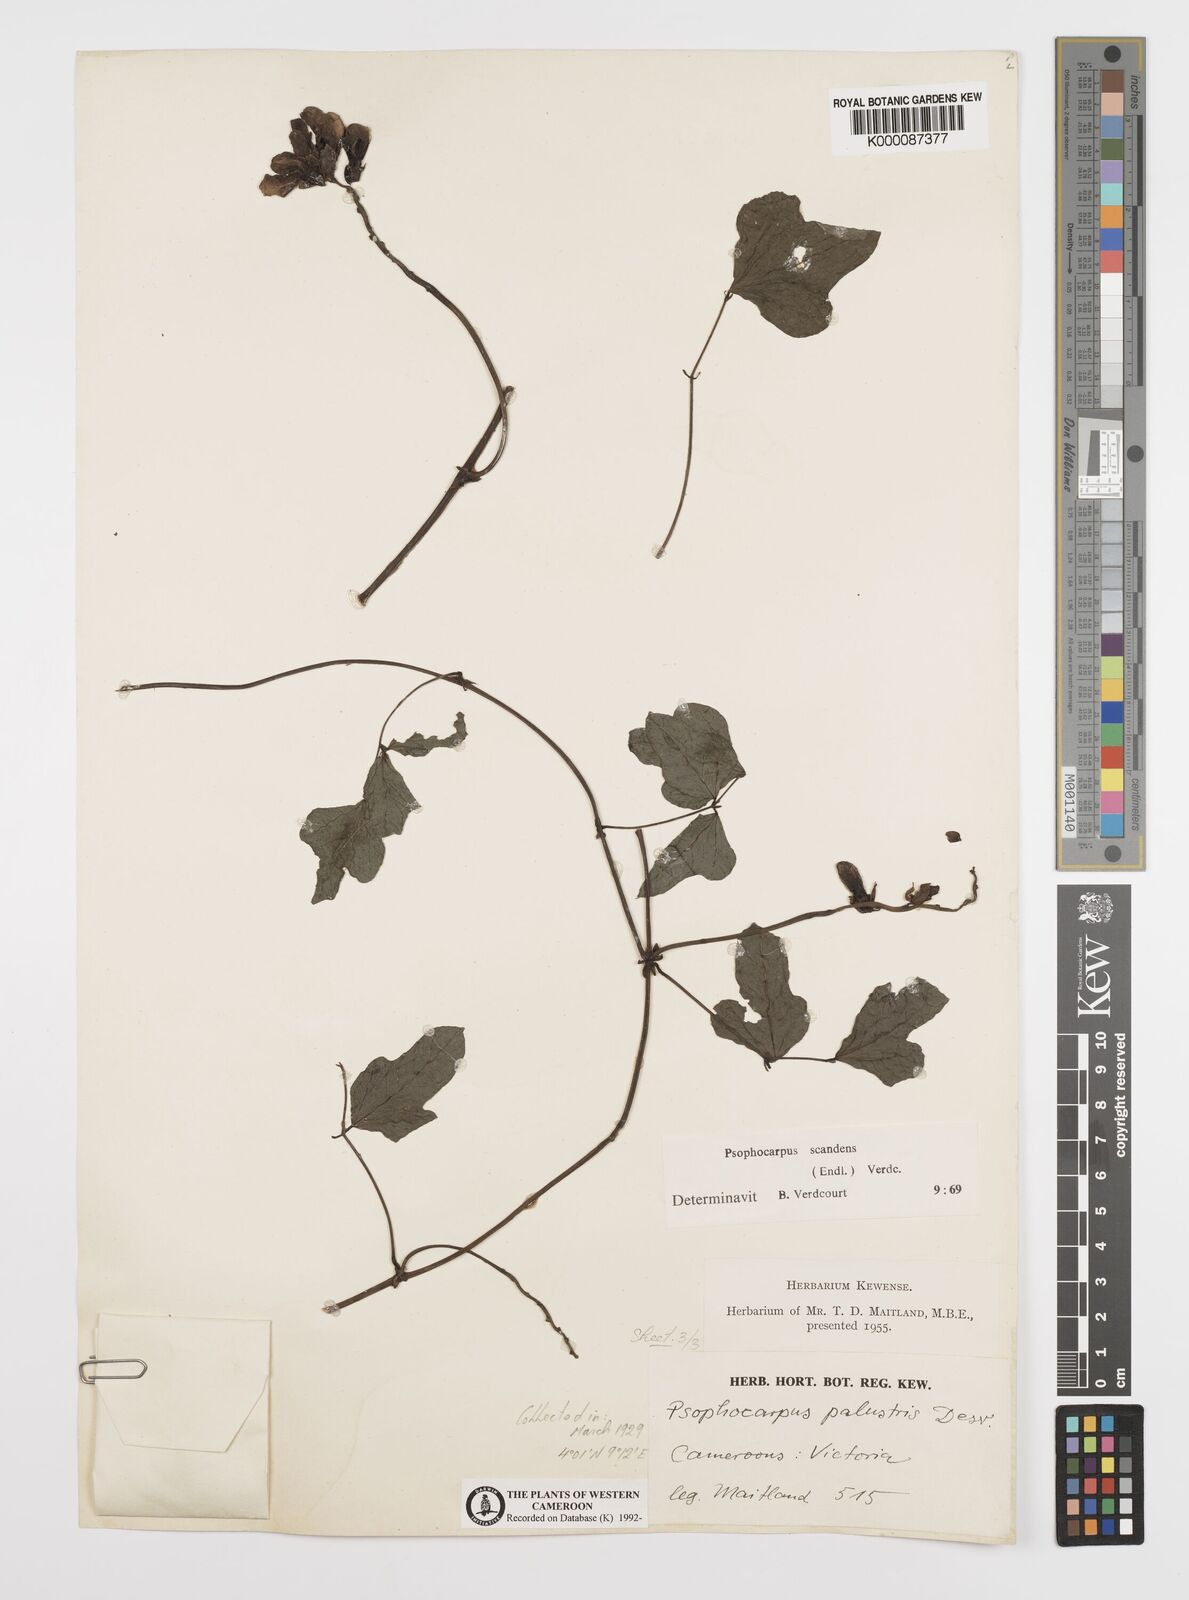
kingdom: Plantae
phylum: Tracheophyta
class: Magnoliopsida
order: Fabales
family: Fabaceae
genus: Psophocarpus
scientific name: Psophocarpus scandens
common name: Tropical african winged-bean
